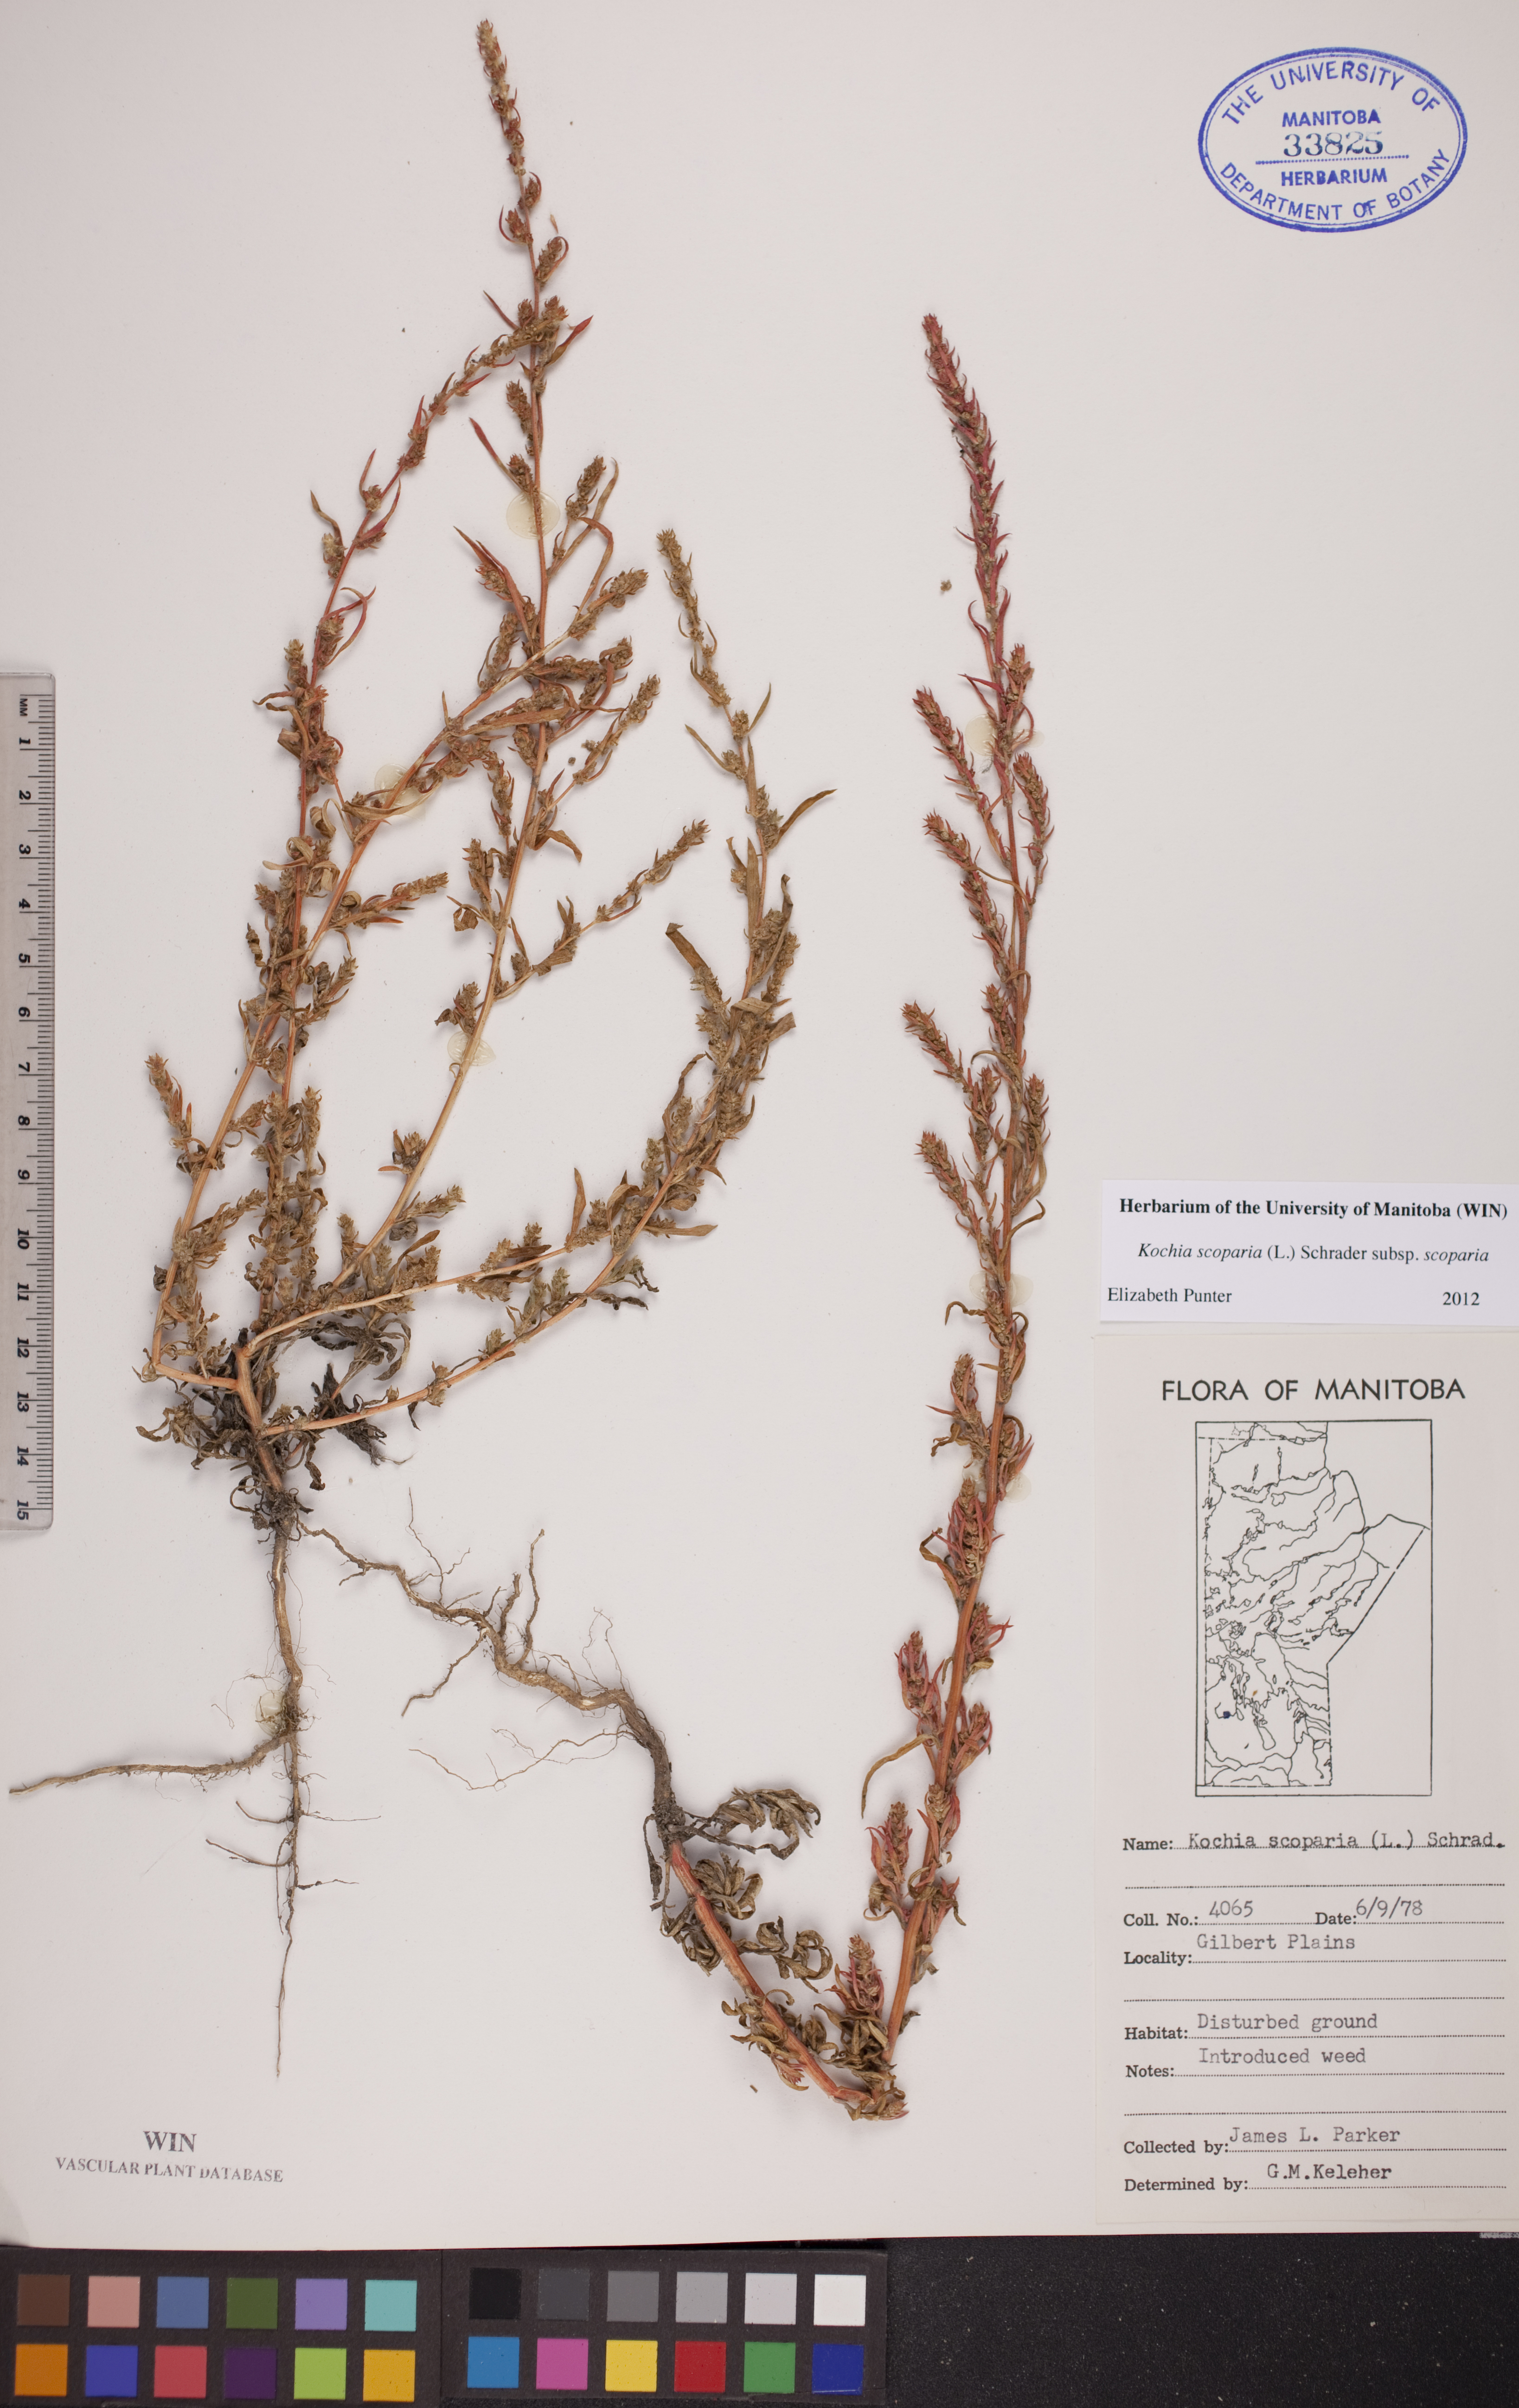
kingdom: Plantae
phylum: Tracheophyta
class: Magnoliopsida
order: Caryophyllales
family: Amaranthaceae
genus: Bassia
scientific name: Bassia scoparia
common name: Belvedere
